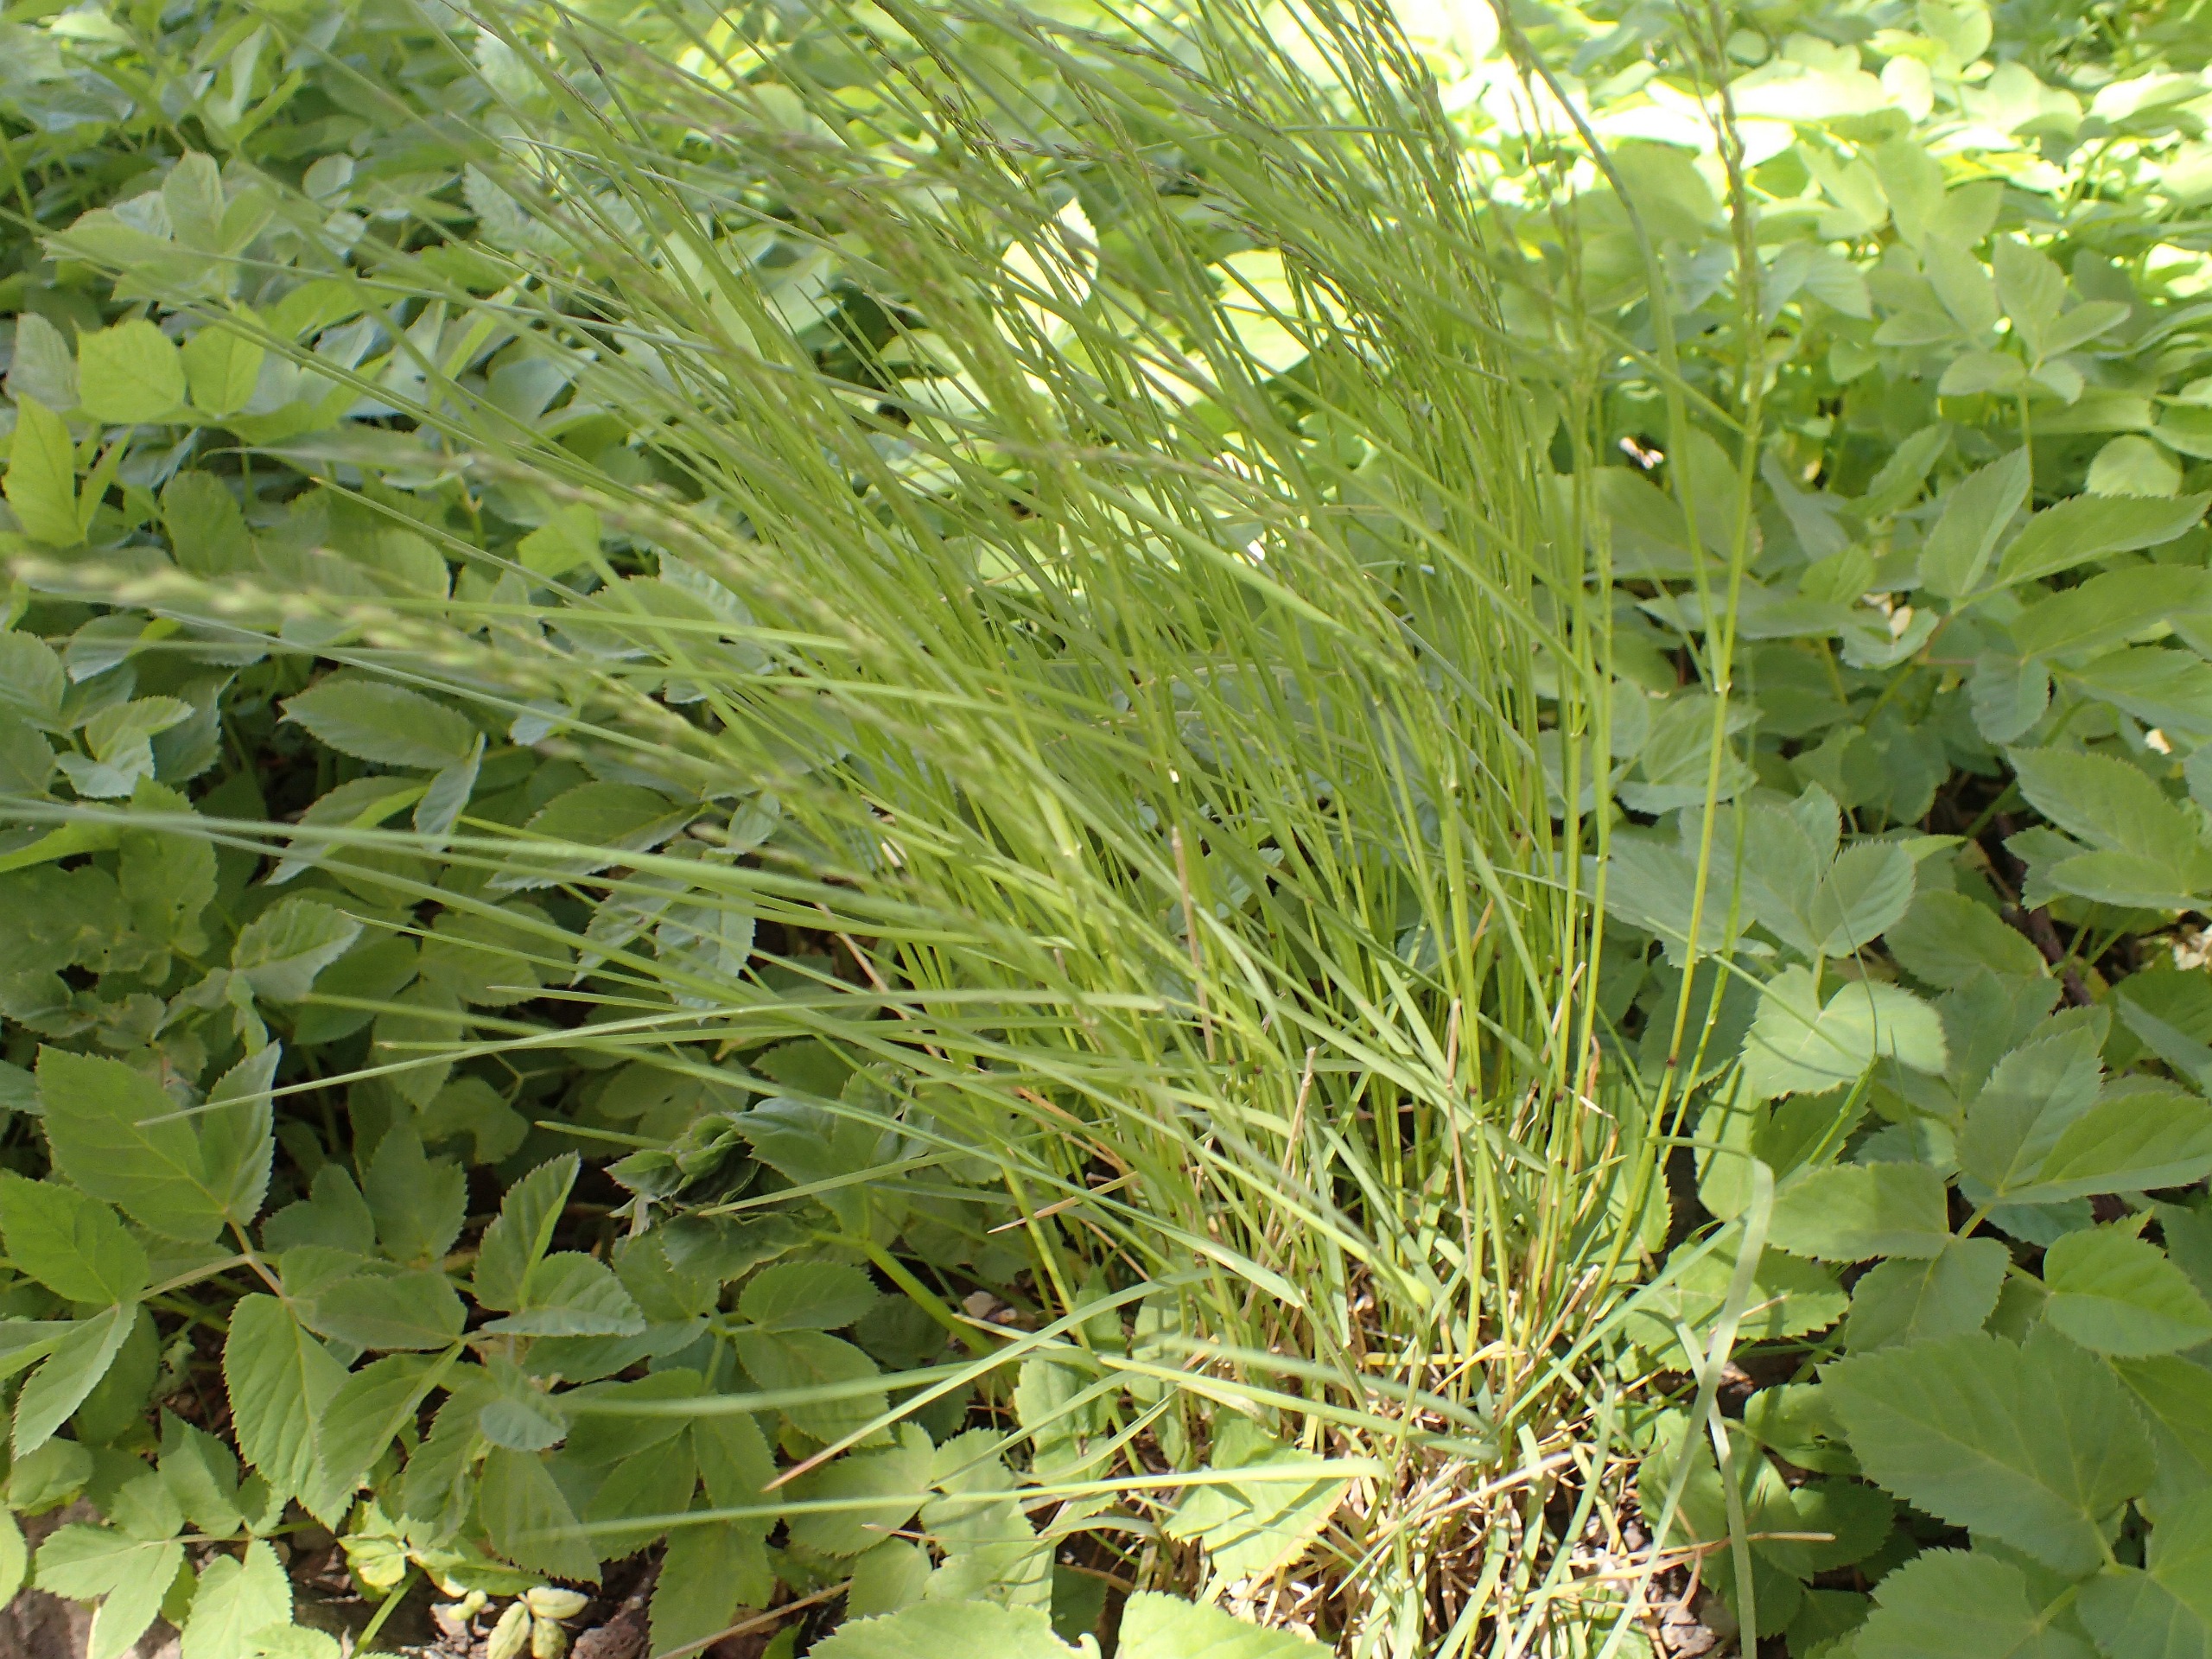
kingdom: Plantae
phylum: Tracheophyta
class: Liliopsida
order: Poales
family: Poaceae
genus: Poa
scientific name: Poa nemoralis
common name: Lund-rapgræs
